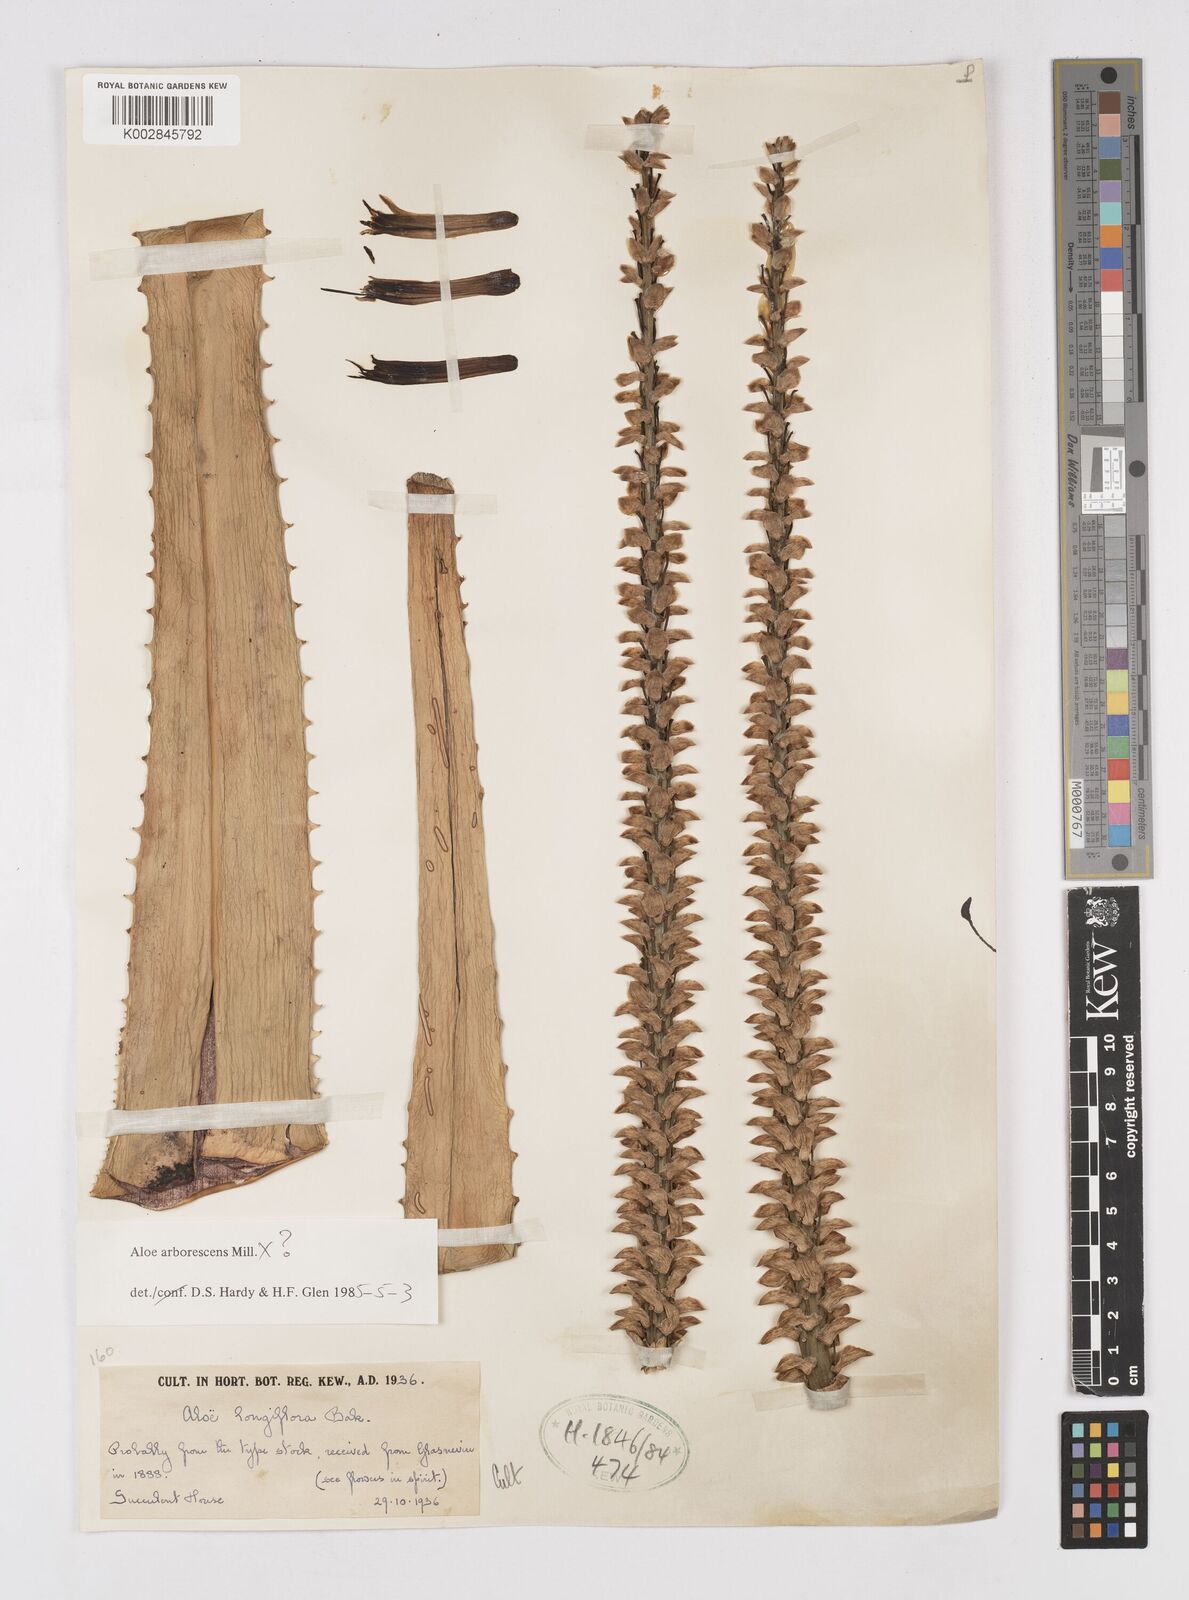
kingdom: Plantae
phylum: Tracheophyta
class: Liliopsida
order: Asparagales
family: Asphodelaceae
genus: Aloe
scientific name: Aloe arborescens
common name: Candelabra aloe
